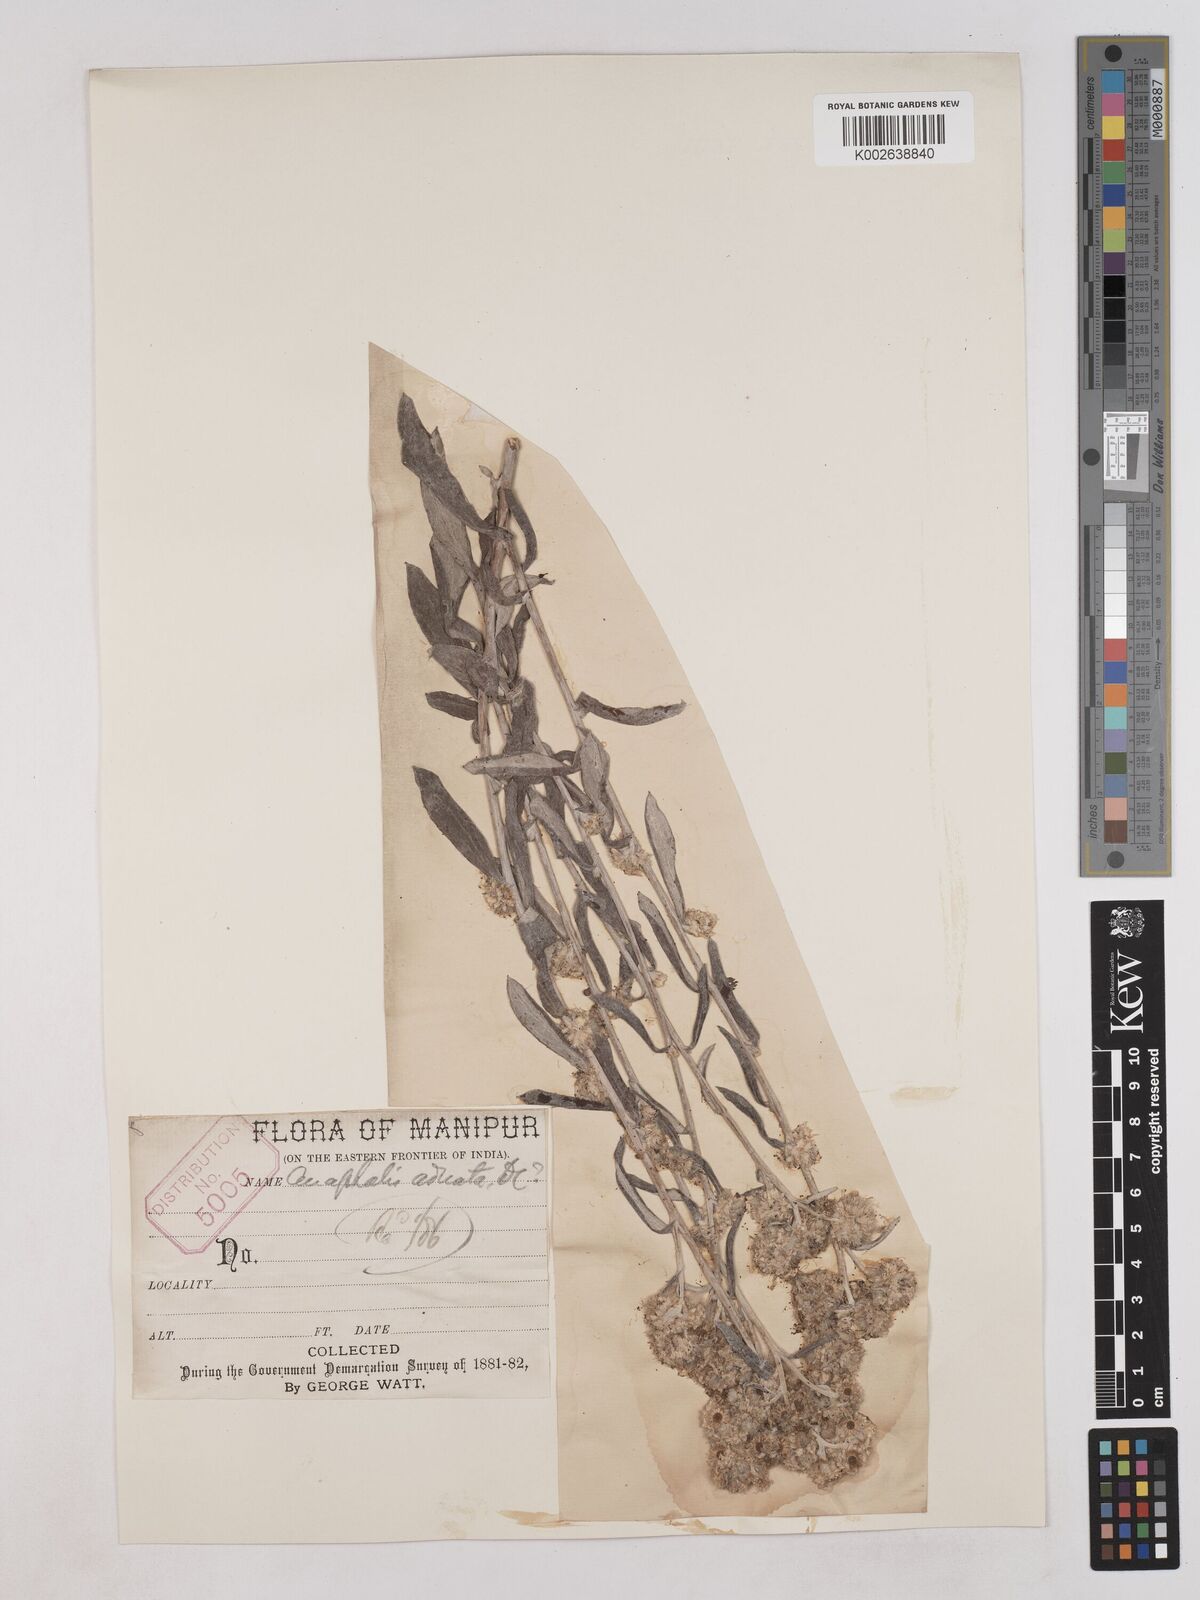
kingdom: Plantae
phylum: Tracheophyta
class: Magnoliopsida
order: Asterales
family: Asteraceae
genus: Pseudognaphalium
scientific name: Pseudognaphalium adnatum
